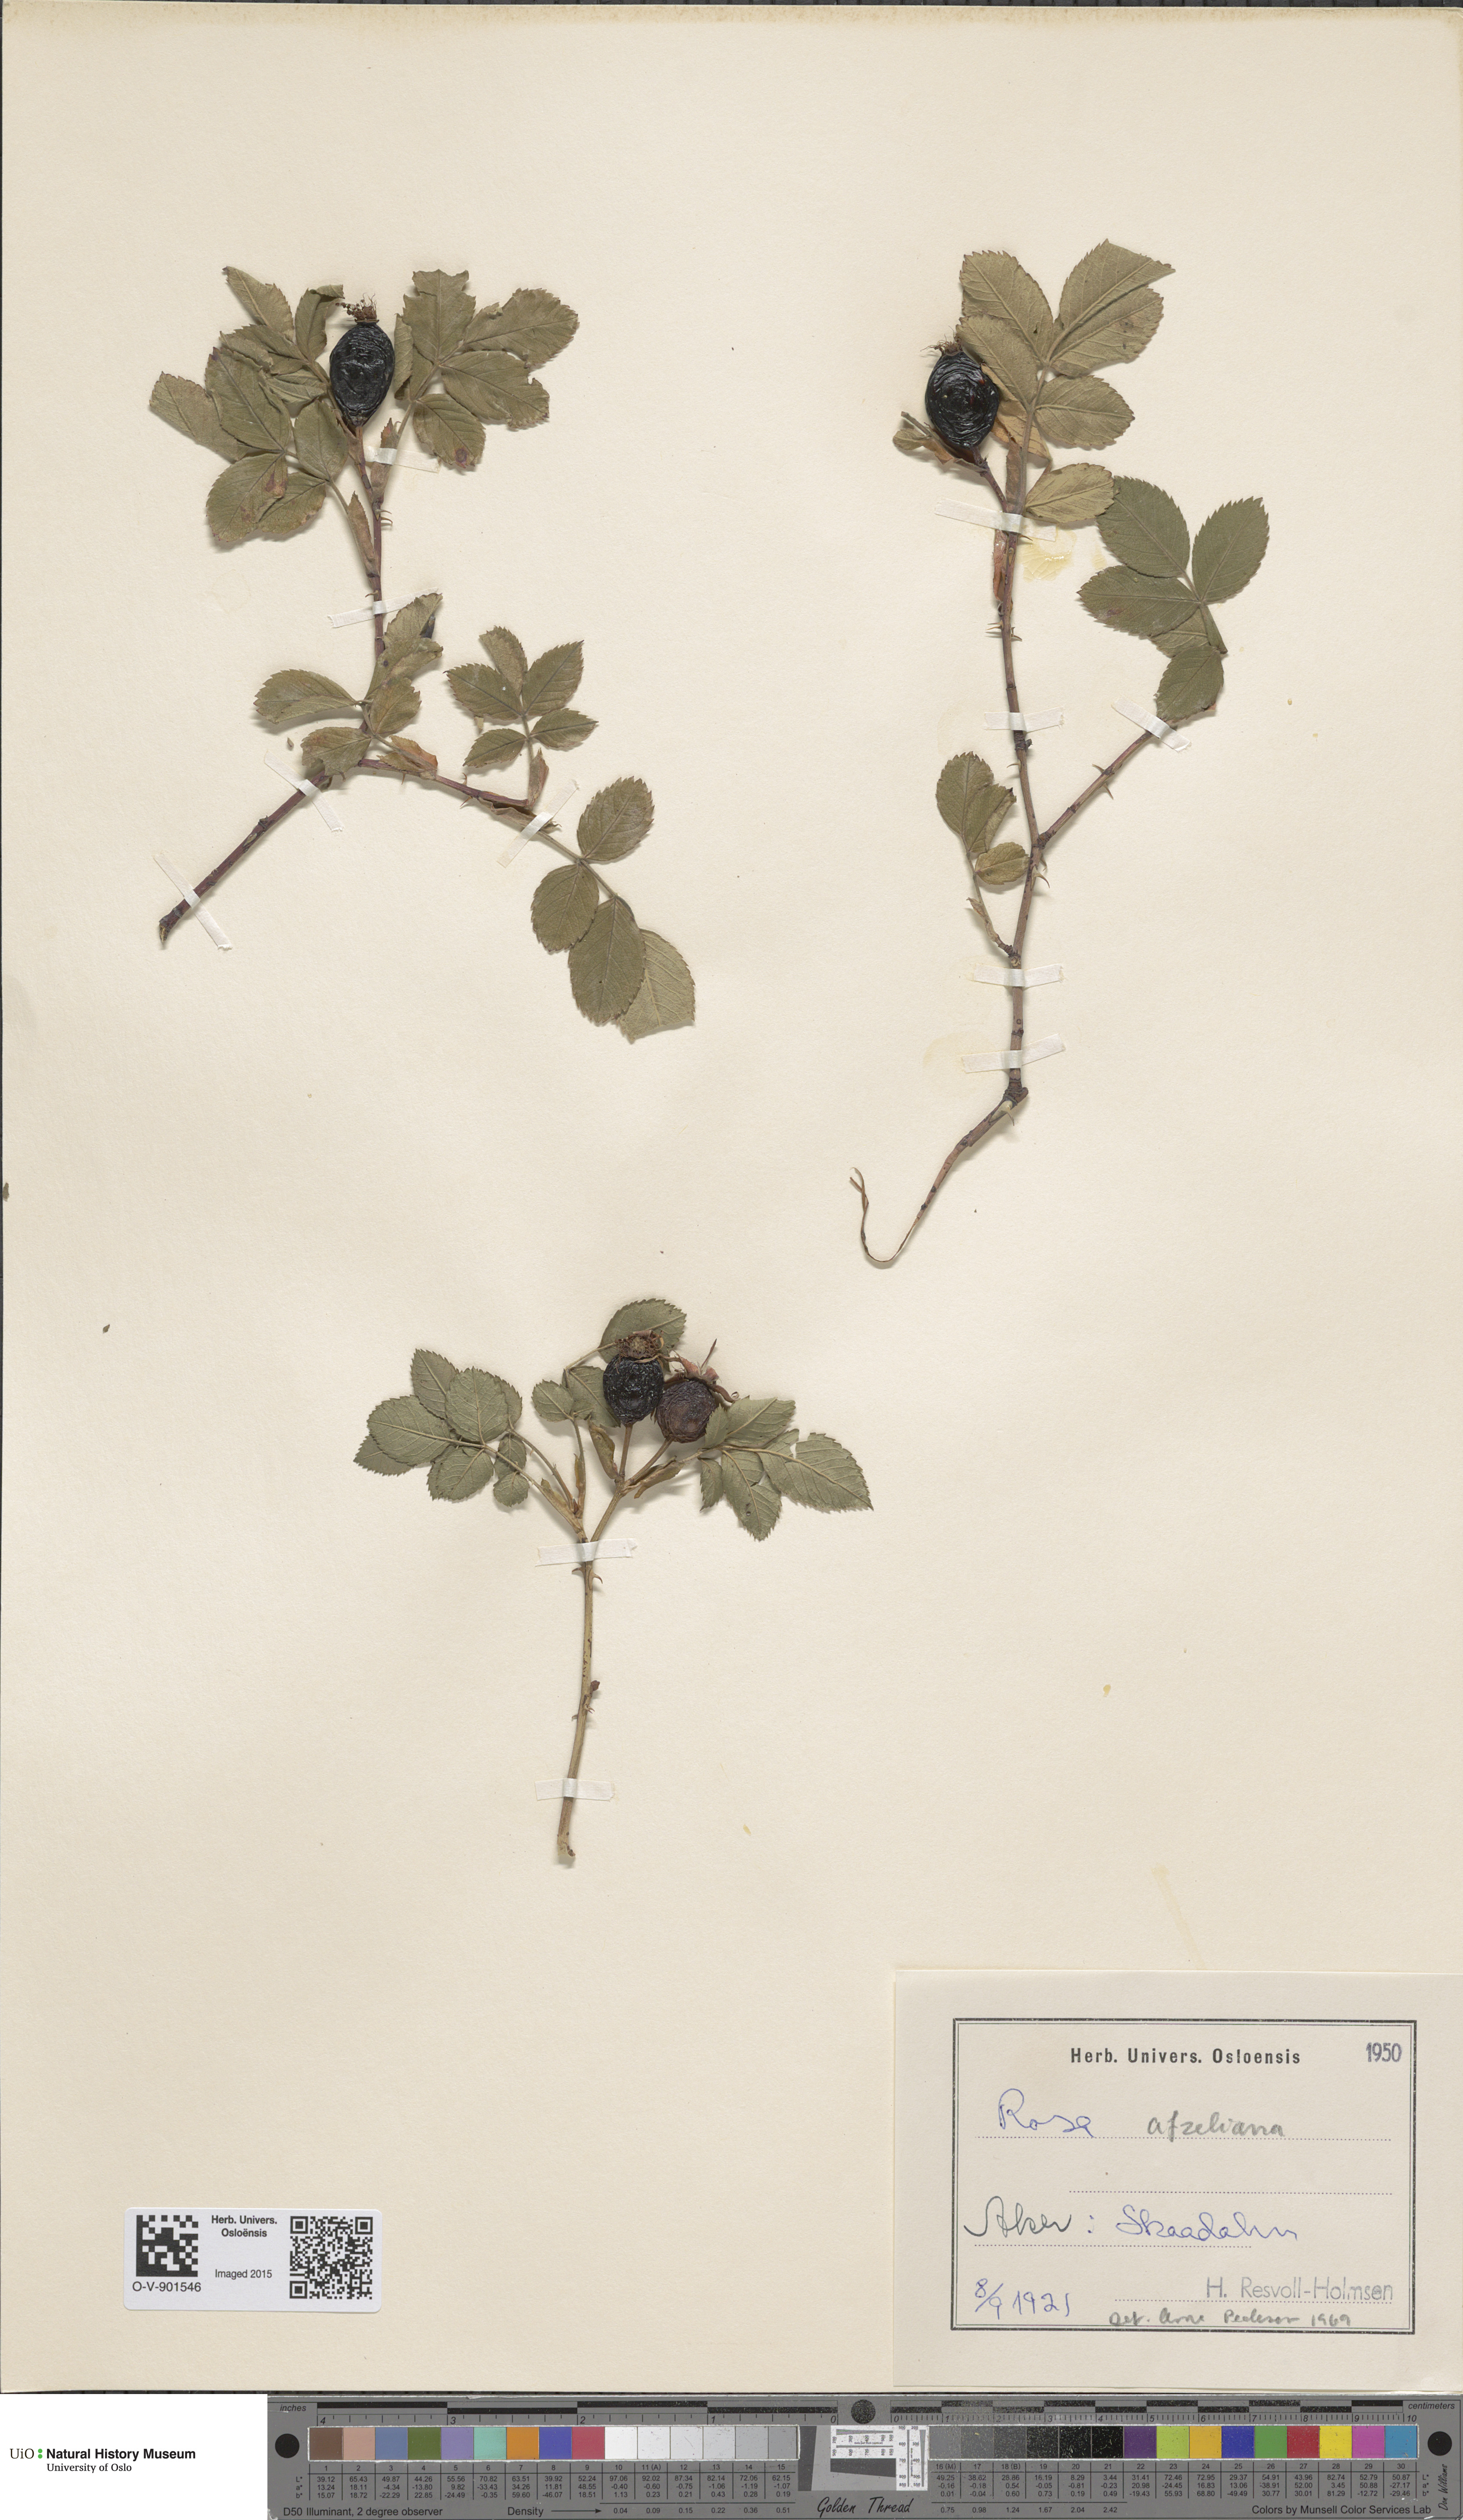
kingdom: Plantae
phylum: Tracheophyta
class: Magnoliopsida
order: Rosales
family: Rosaceae
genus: Rosa
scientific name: Rosa
